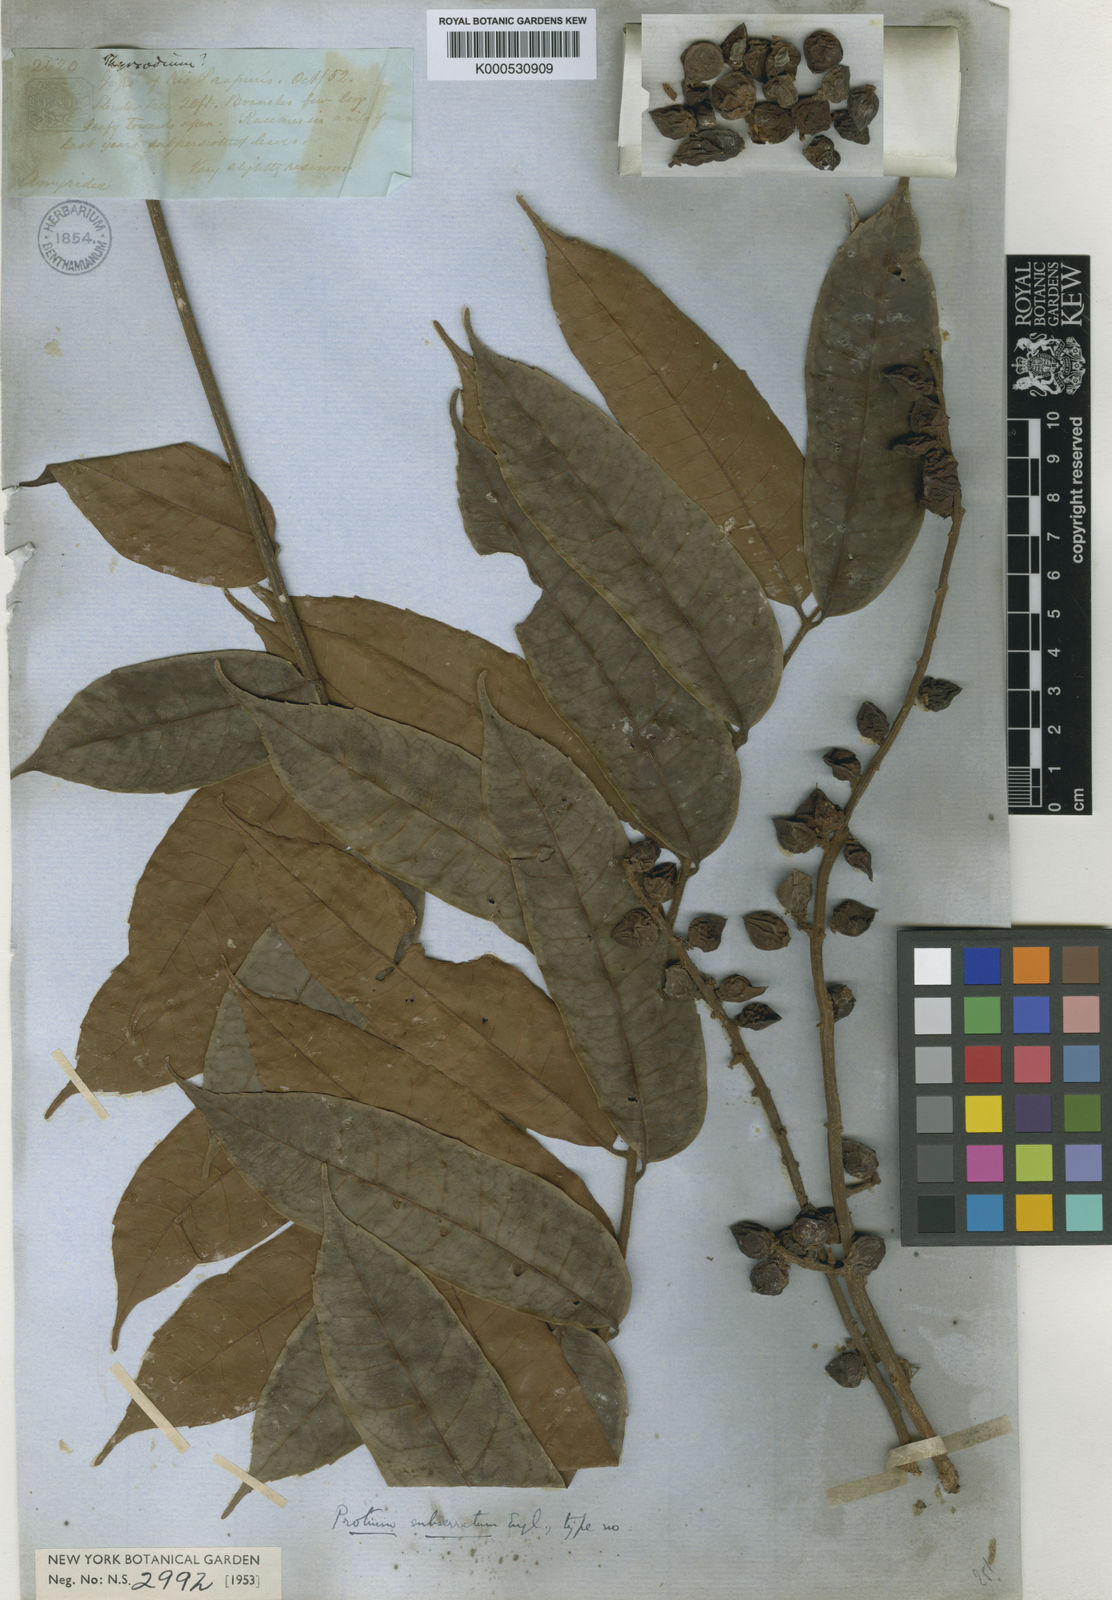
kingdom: Plantae
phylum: Tracheophyta
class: Magnoliopsida
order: Sapindales
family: Burseraceae
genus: Protium
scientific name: Protium subserratum
